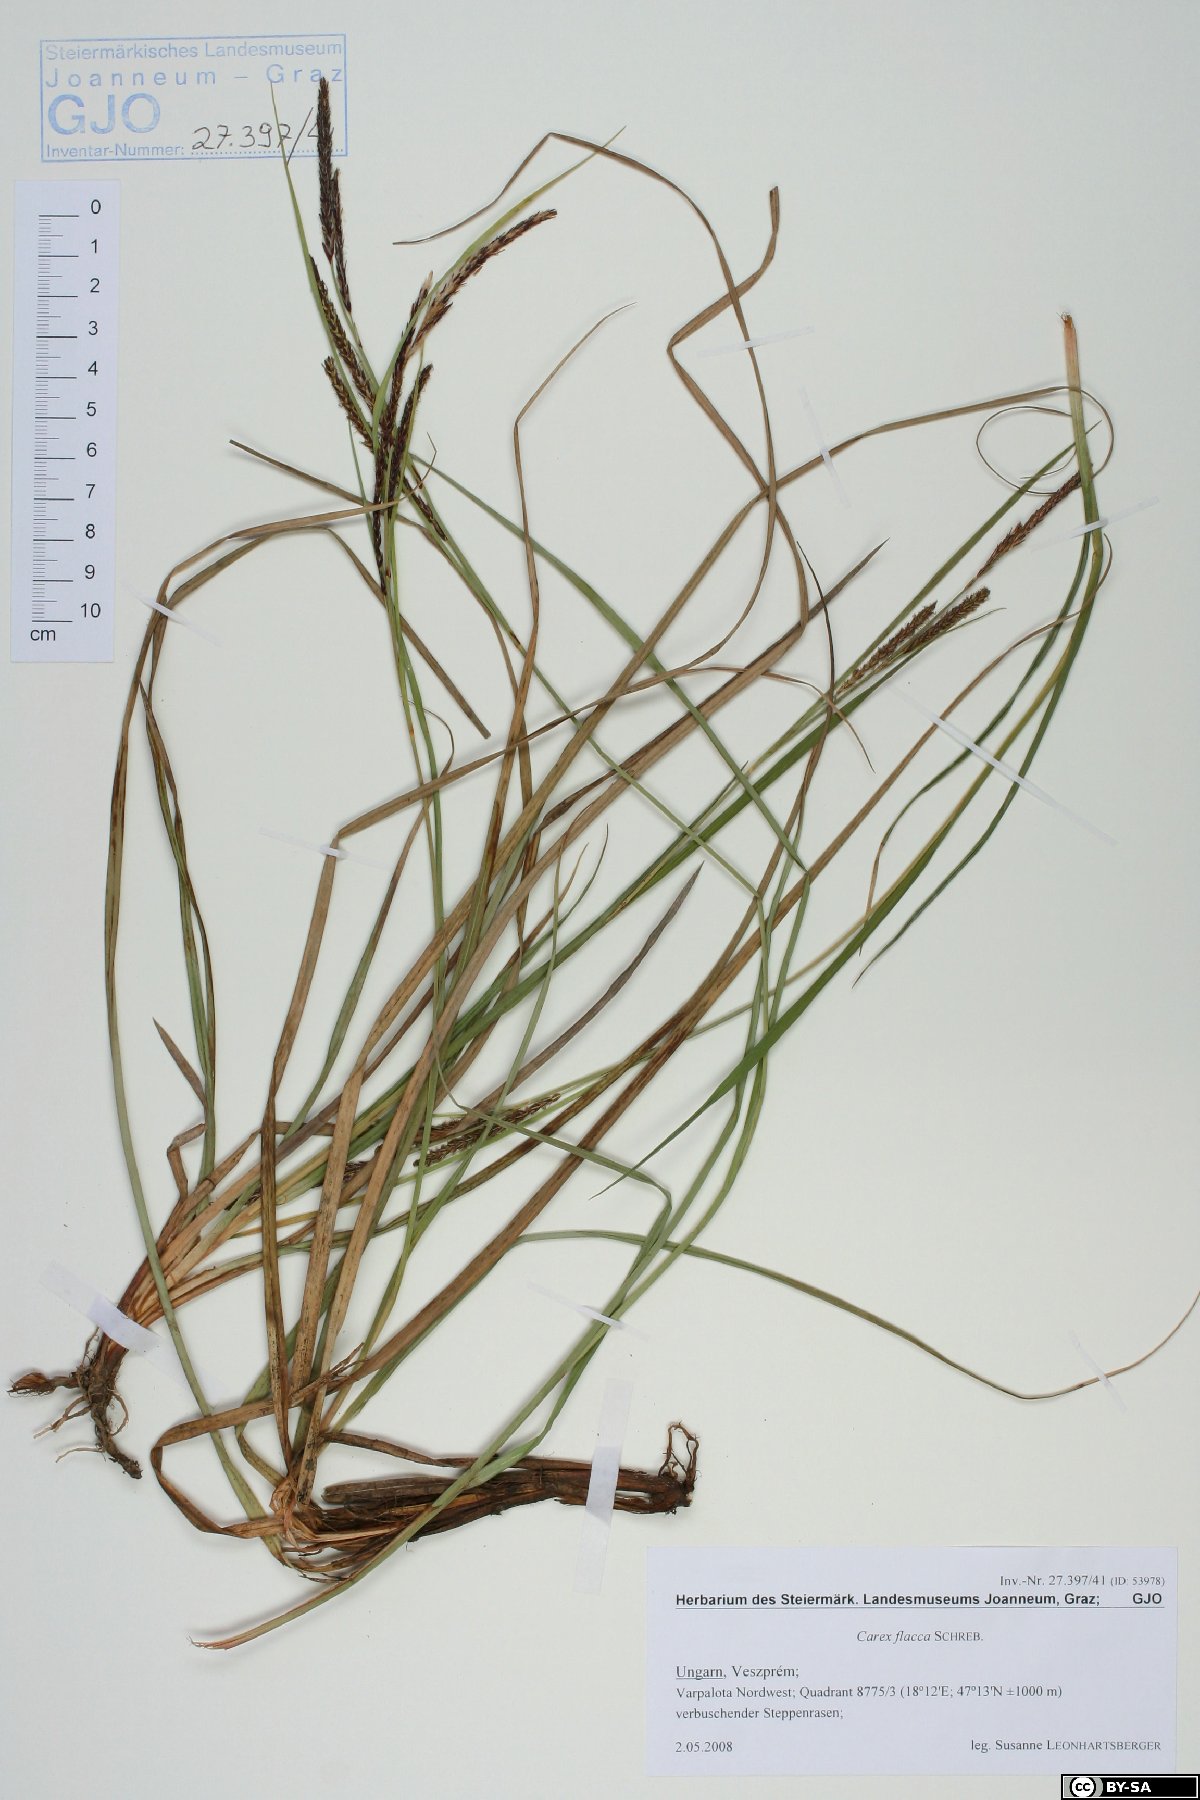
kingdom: Plantae
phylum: Tracheophyta
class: Liliopsida
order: Poales
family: Cyperaceae
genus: Carex
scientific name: Carex flacca
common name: Glaucous sedge
